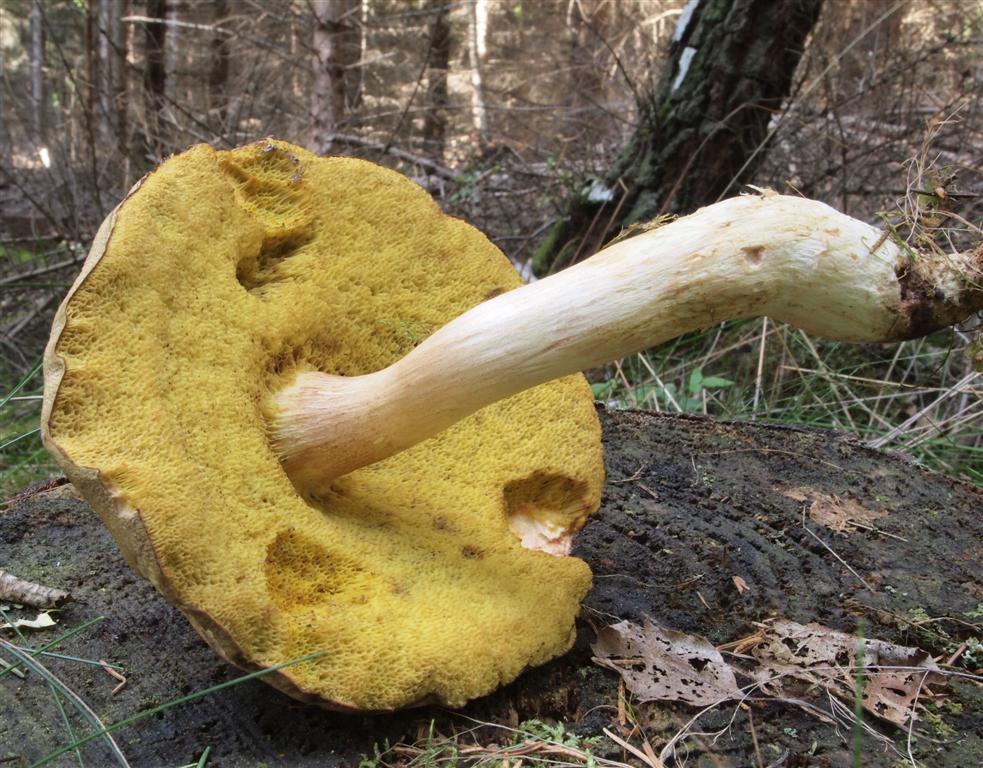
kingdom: Fungi
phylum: Basidiomycota
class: Agaricomycetes
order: Boletales
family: Boletaceae
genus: Xerocomus
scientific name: Xerocomus ferrugineus
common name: vaskeskinds-rørhat
